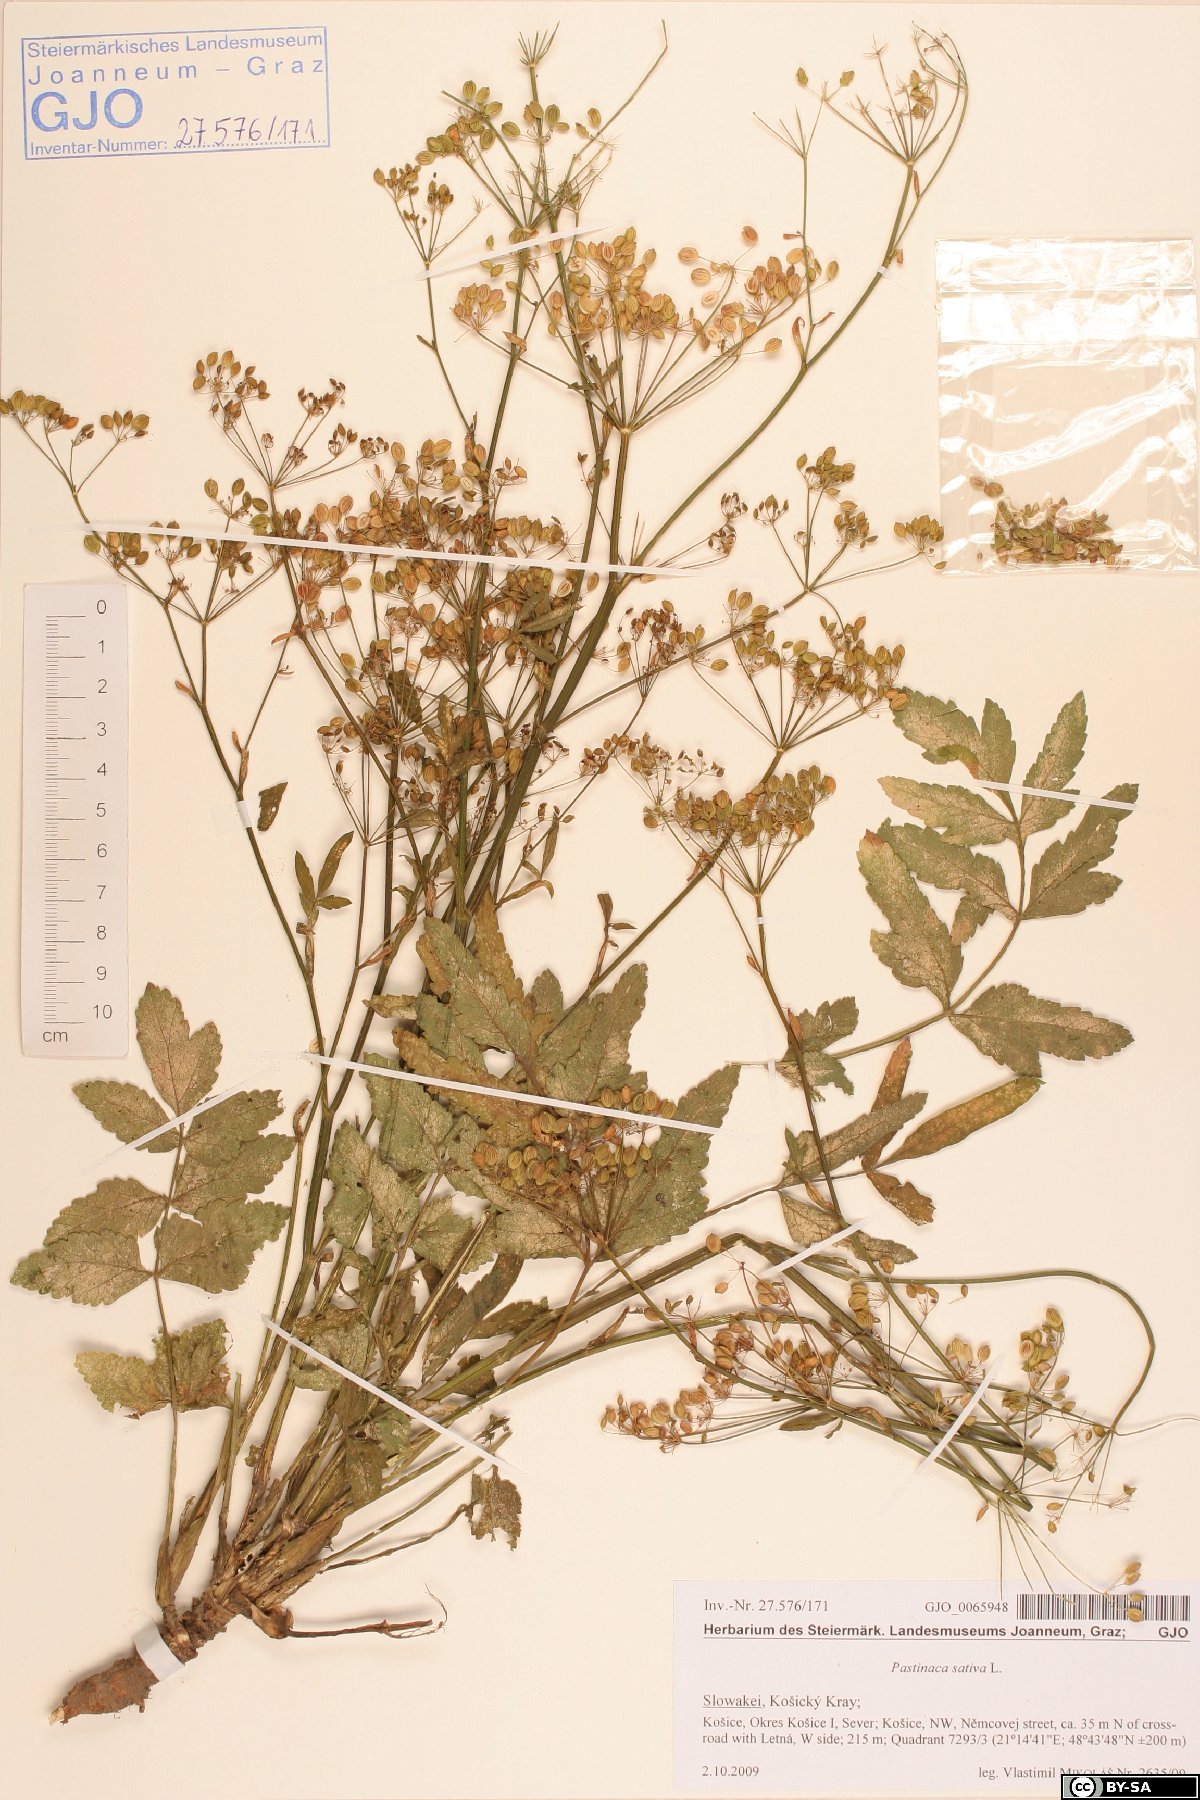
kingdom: Plantae
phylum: Tracheophyta
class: Magnoliopsida
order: Apiales
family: Apiaceae
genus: Pastinaca
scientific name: Pastinaca sativa
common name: Wild parsnip
